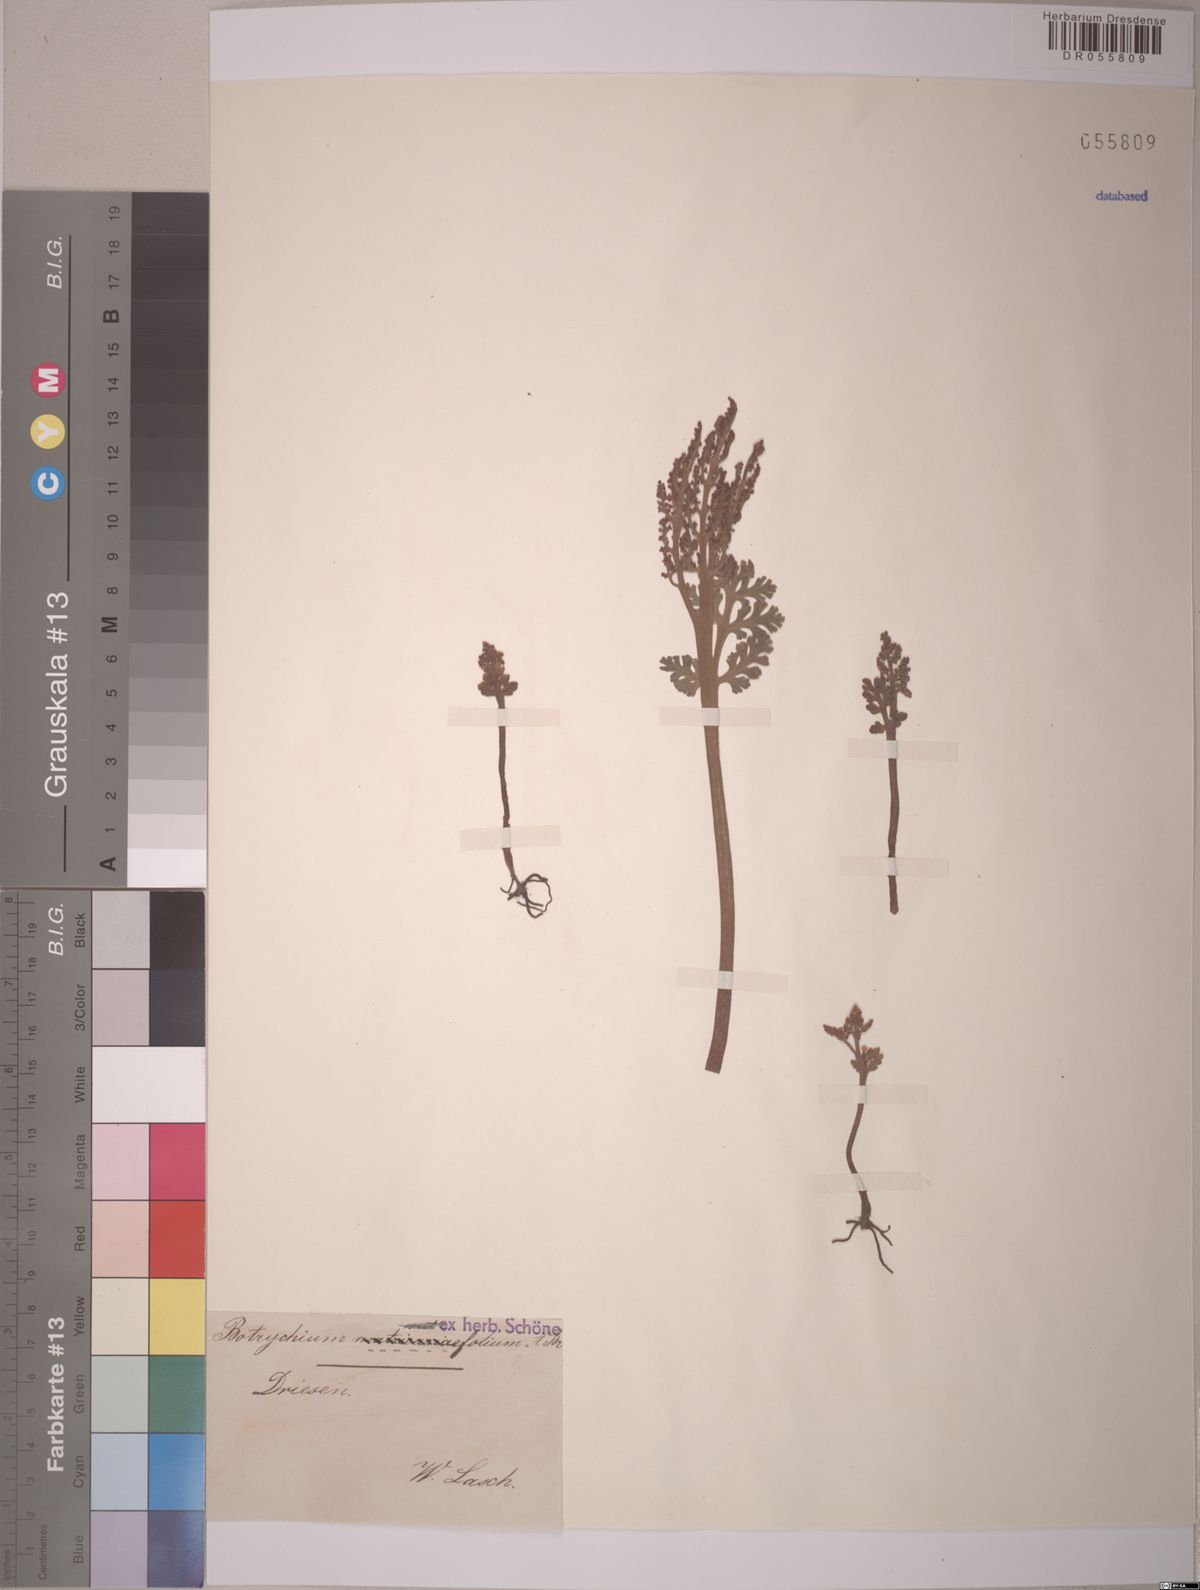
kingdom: Plantae
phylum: Tracheophyta
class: Polypodiopsida
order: Ophioglossales
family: Ophioglossaceae
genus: Botrychium
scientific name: Botrychium
